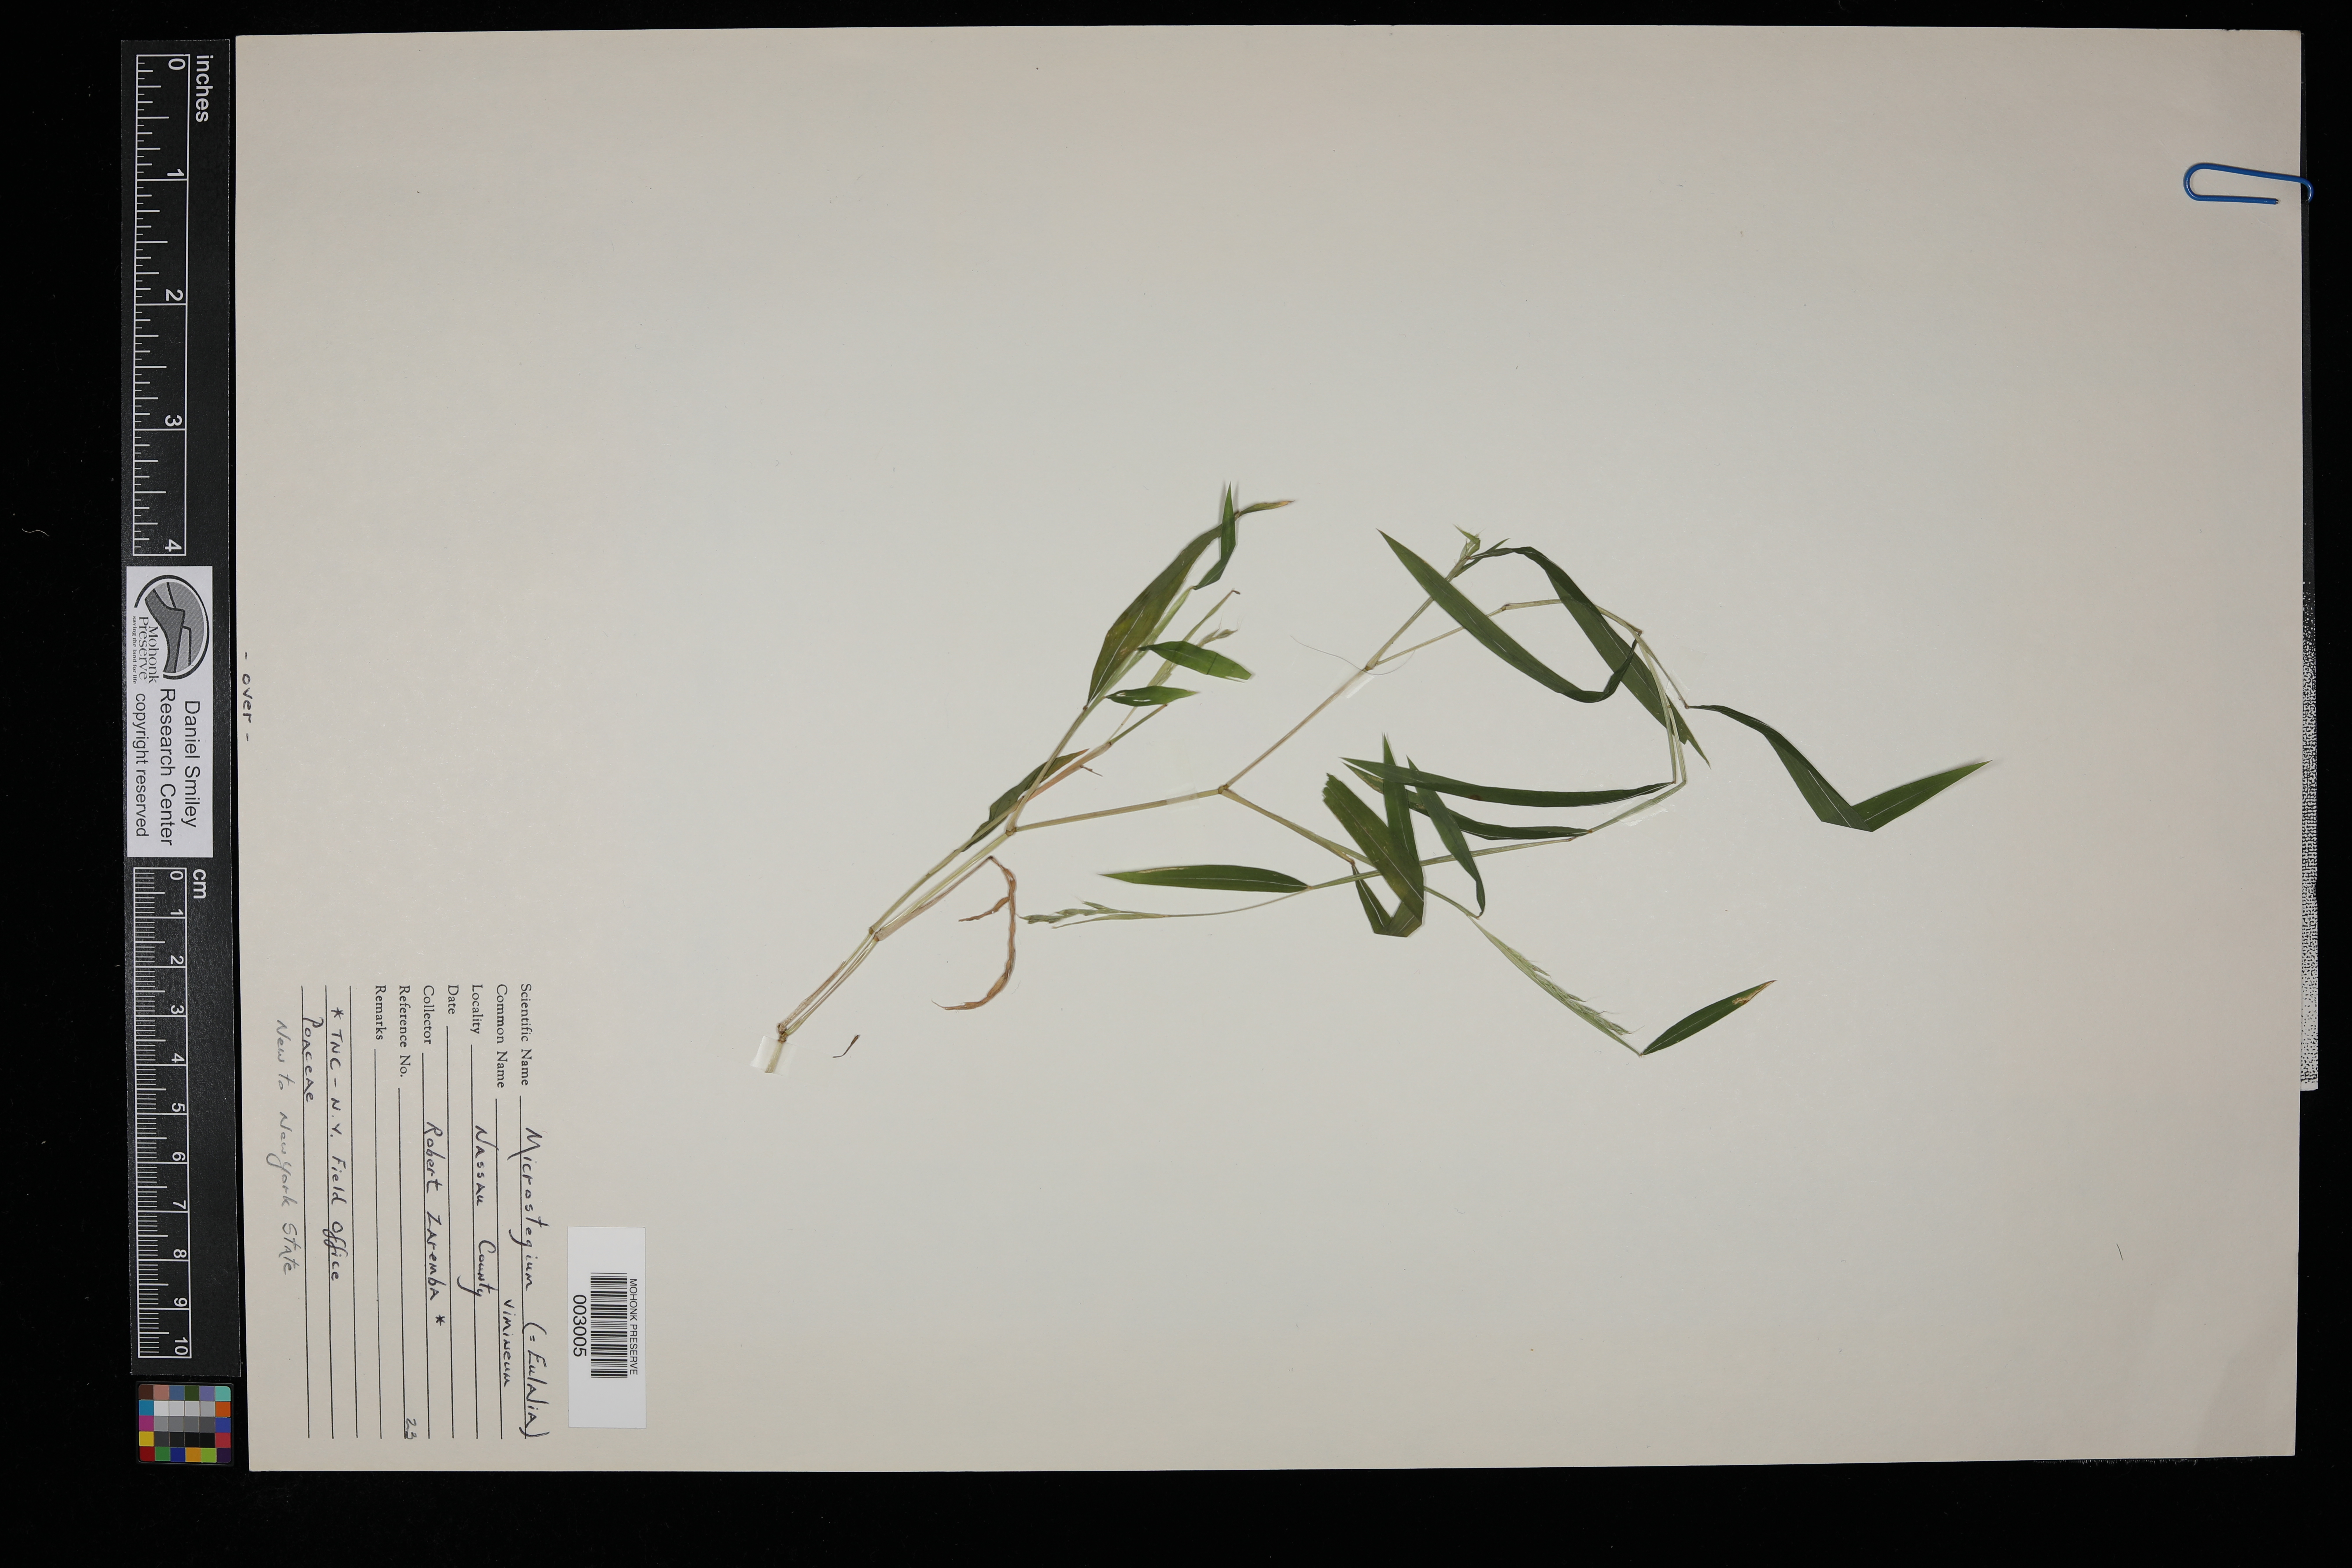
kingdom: Plantae
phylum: Tracheophyta
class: Liliopsida
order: Poales
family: Poaceae
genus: Microstegium
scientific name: Microstegium vimineum
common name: Japanese stiltgrass
